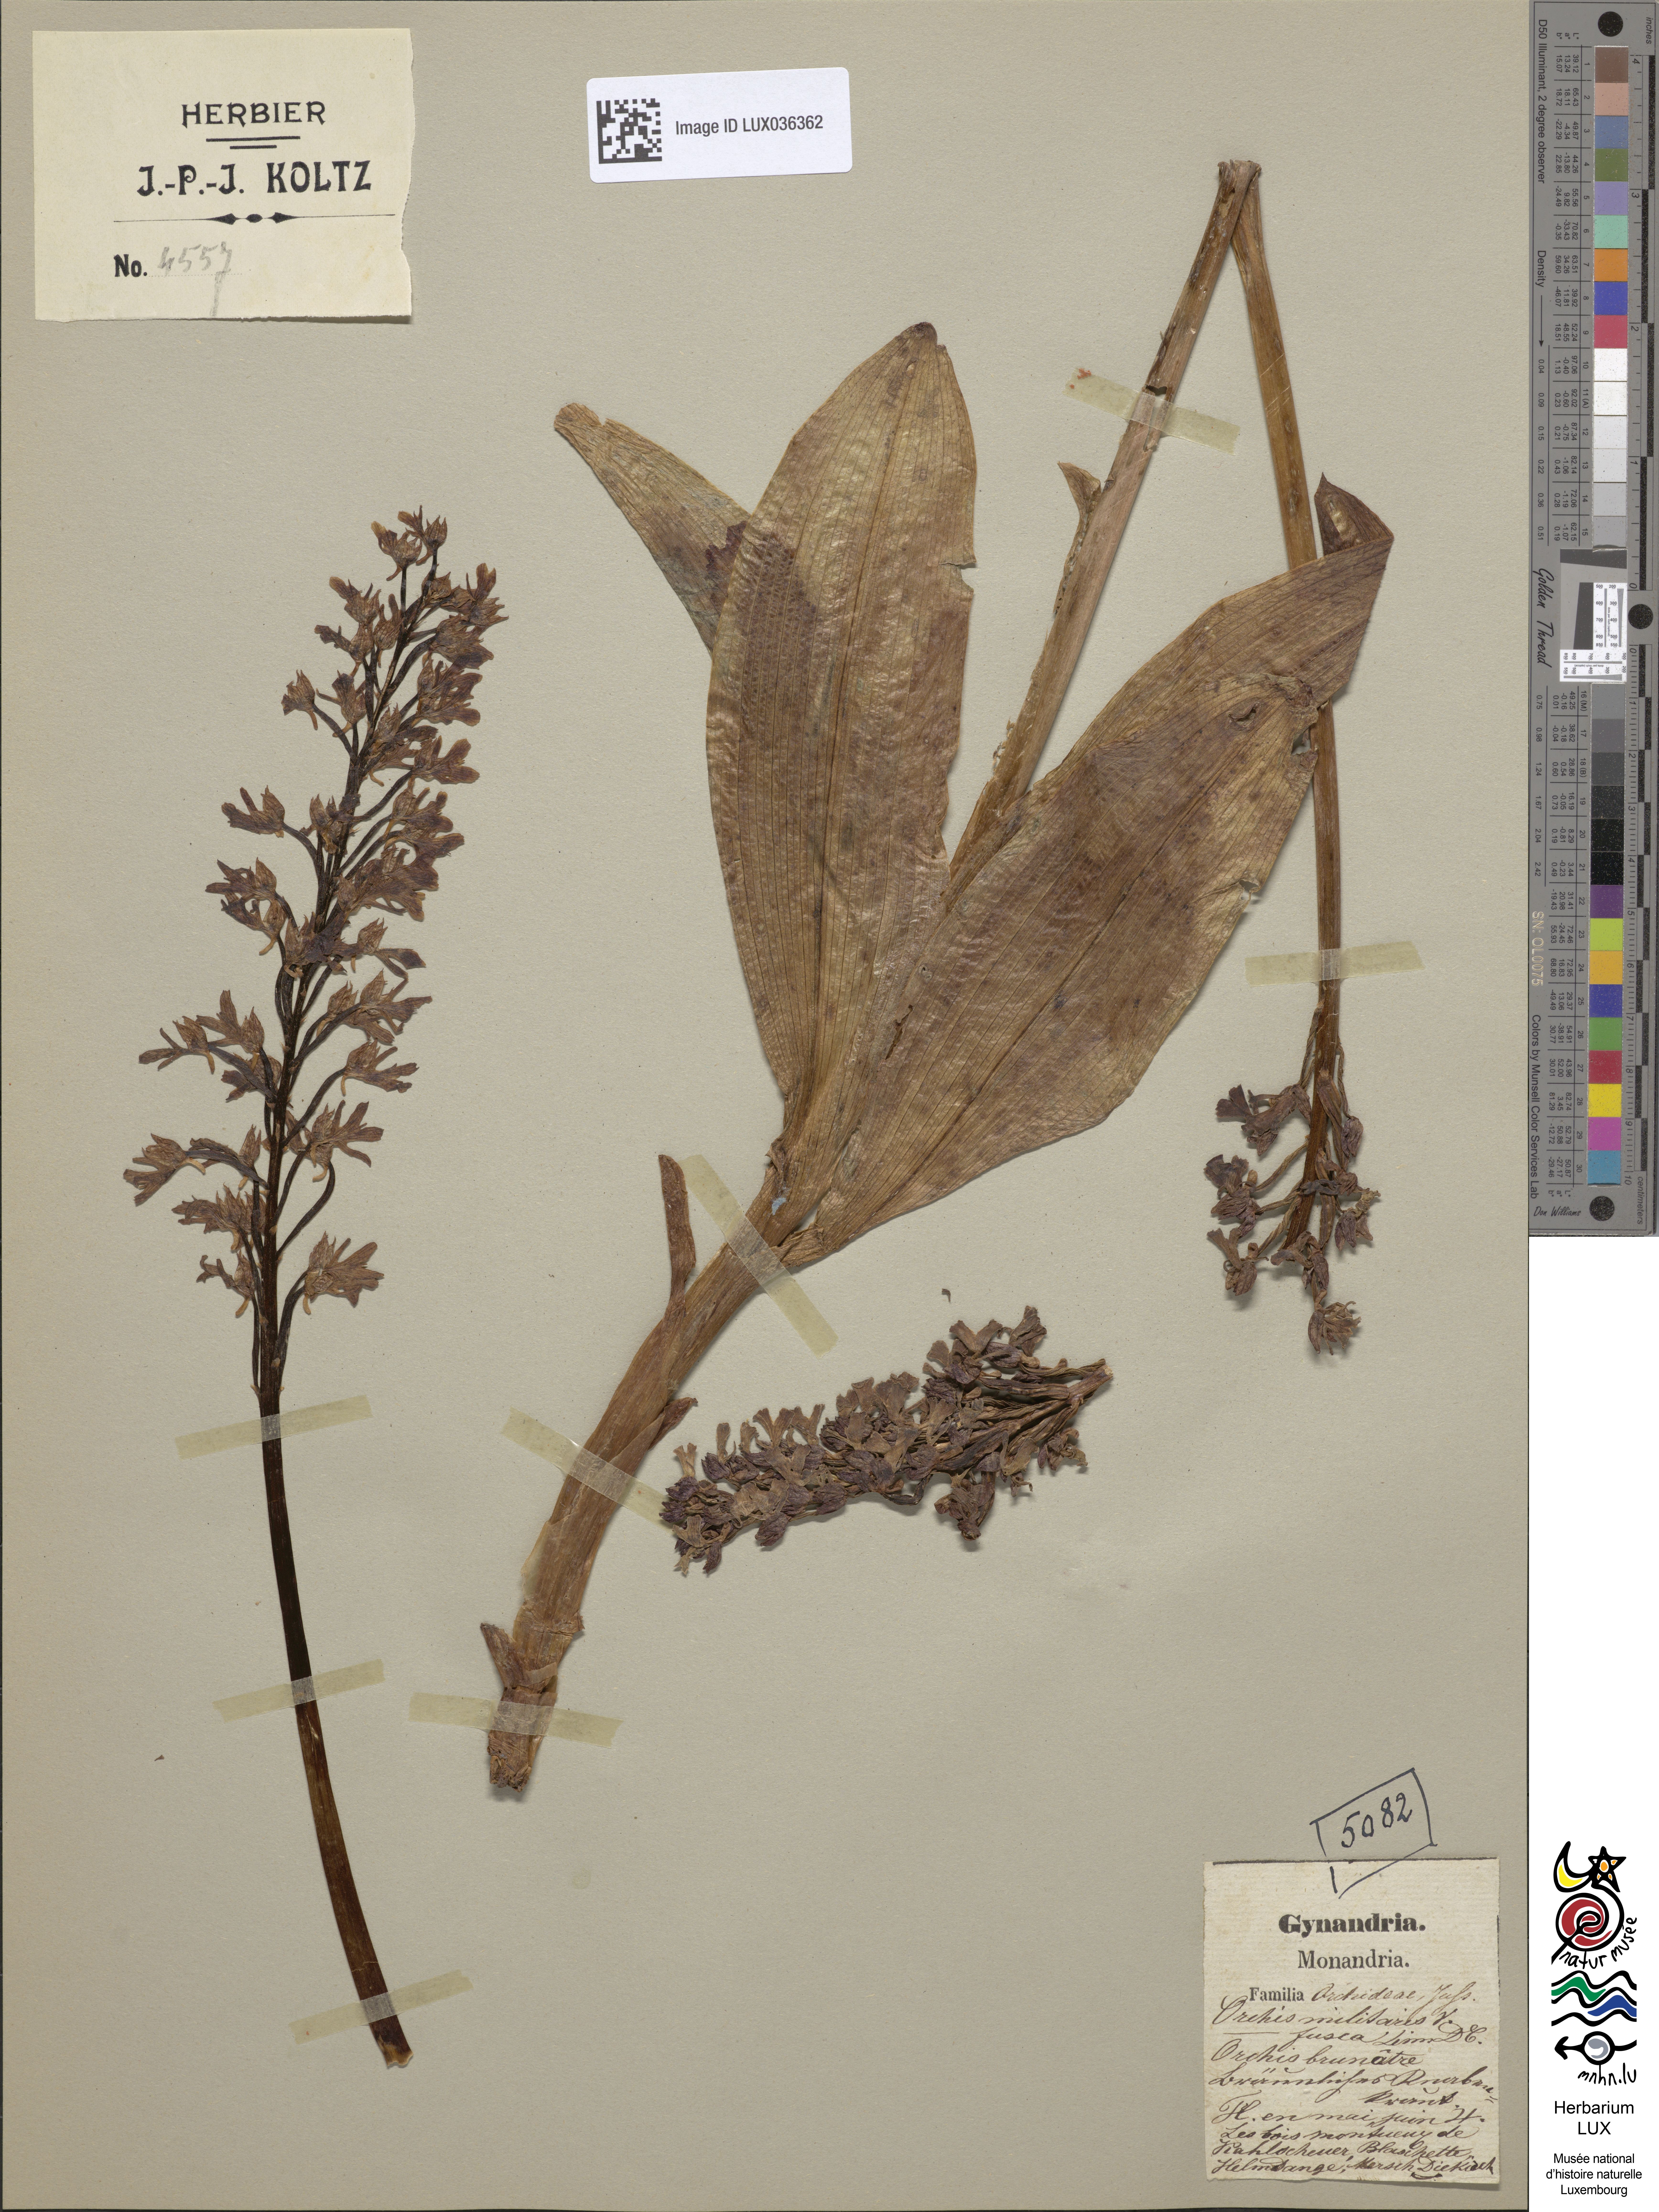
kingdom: Plantae
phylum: Tracheophyta
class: Liliopsida
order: Asparagales
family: Orchidaceae
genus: Orchis
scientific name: Orchis militaris
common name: Military orchid
